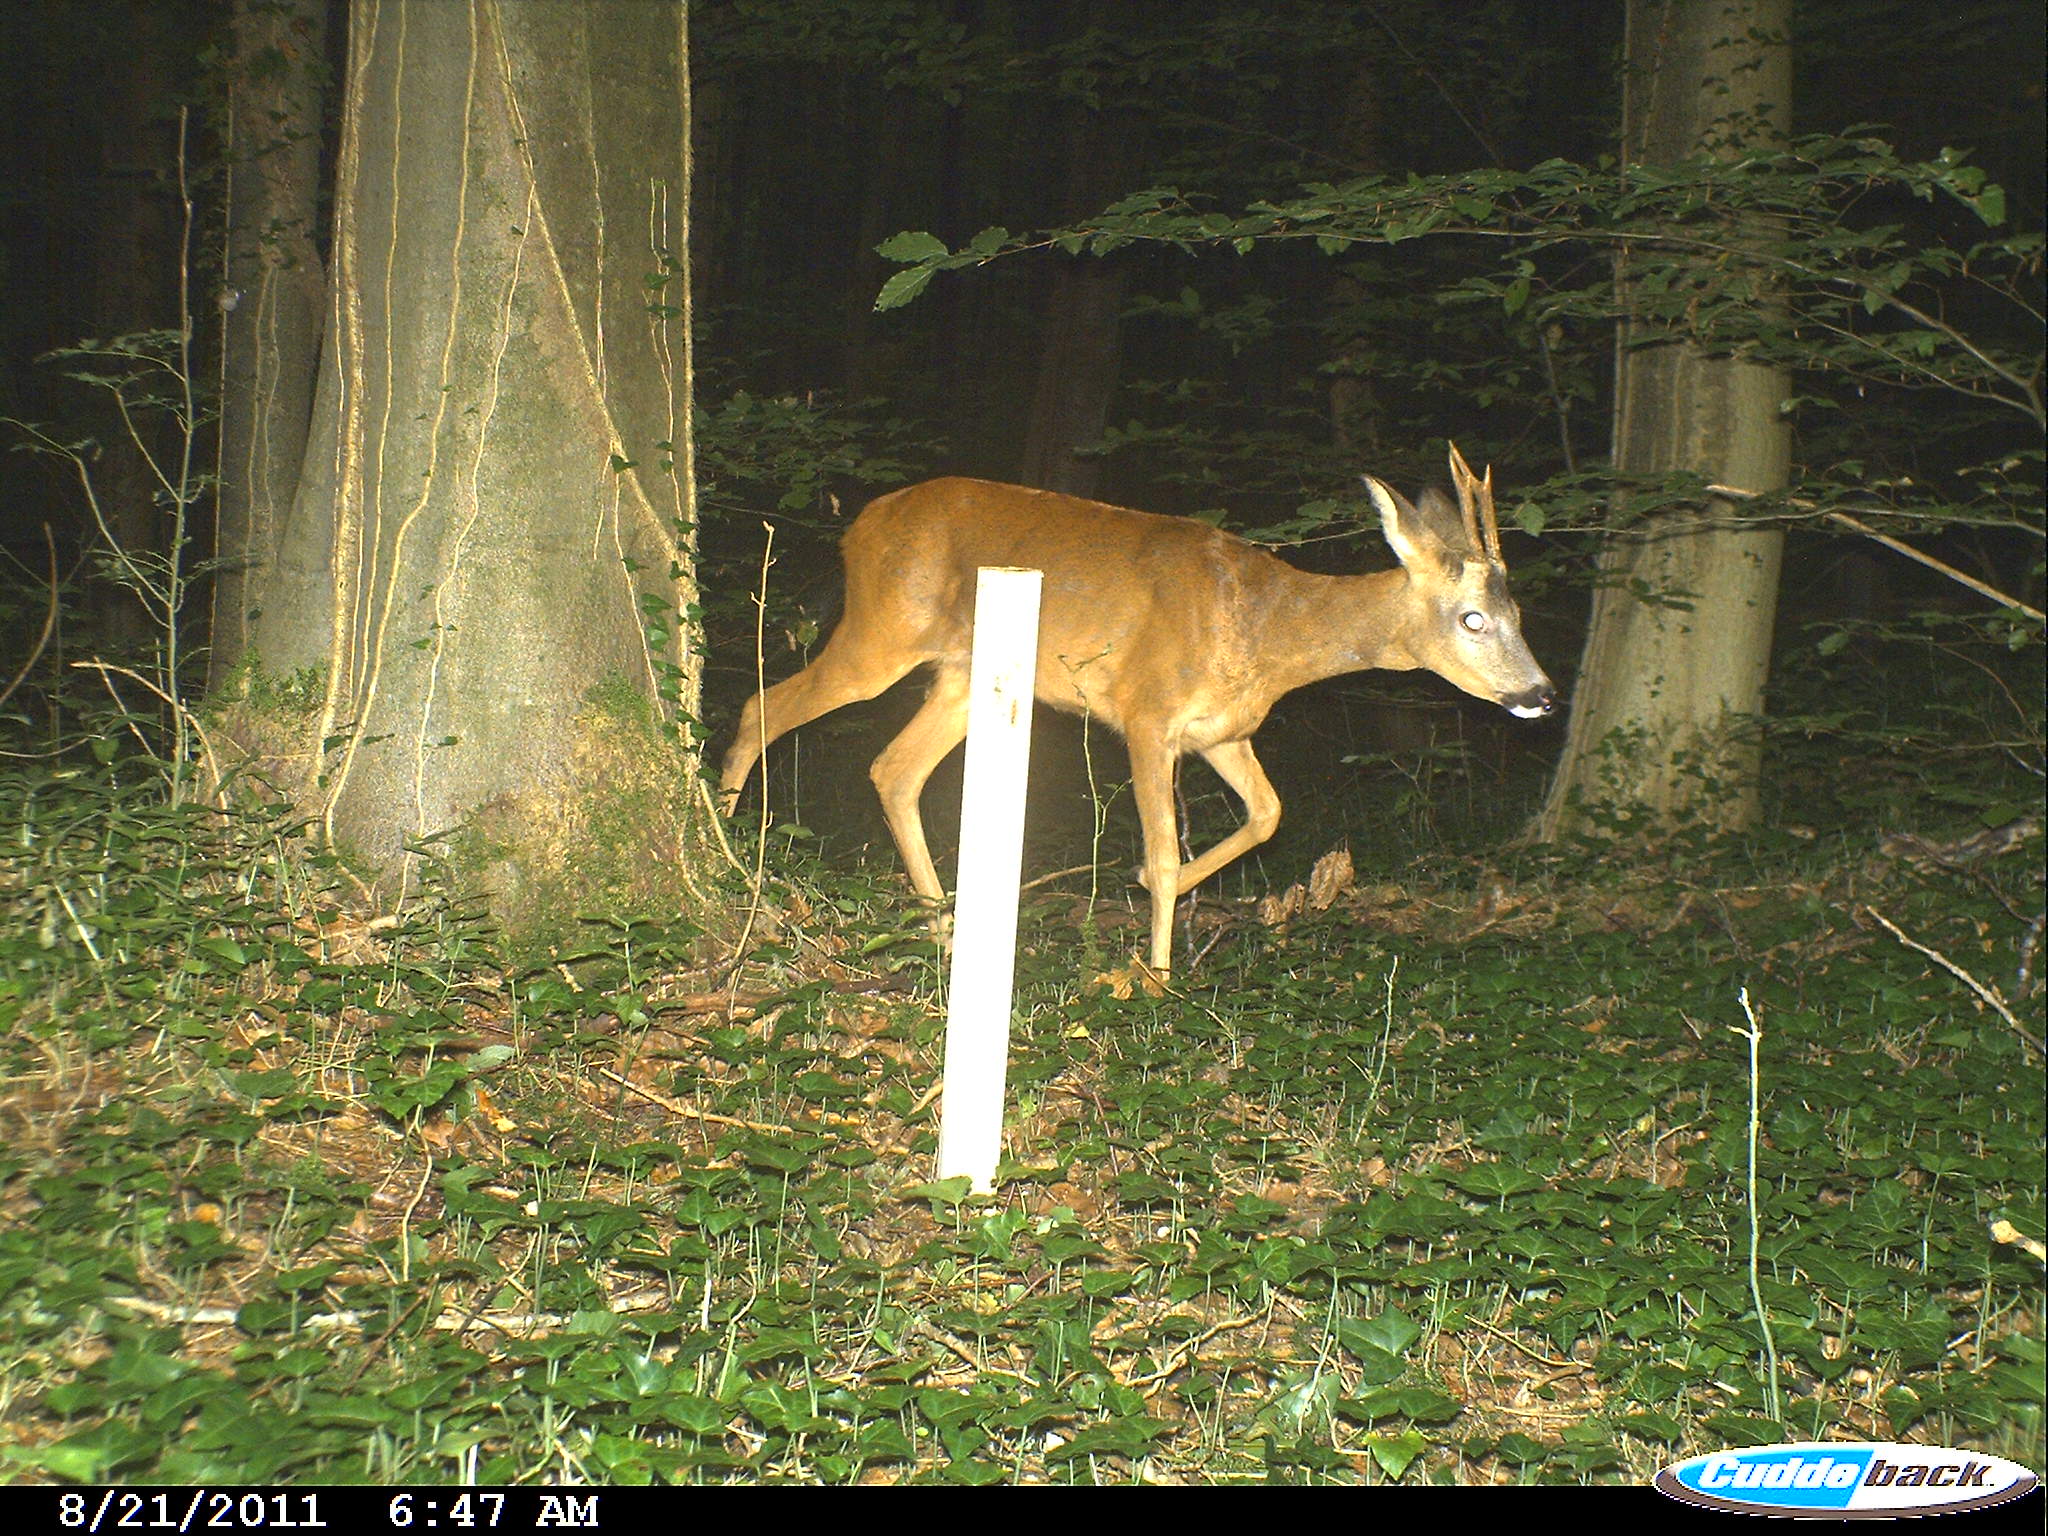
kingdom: Animalia
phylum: Chordata
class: Mammalia
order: Artiodactyla
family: Cervidae
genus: Capreolus
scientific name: Capreolus capreolus
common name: Western roe deer
